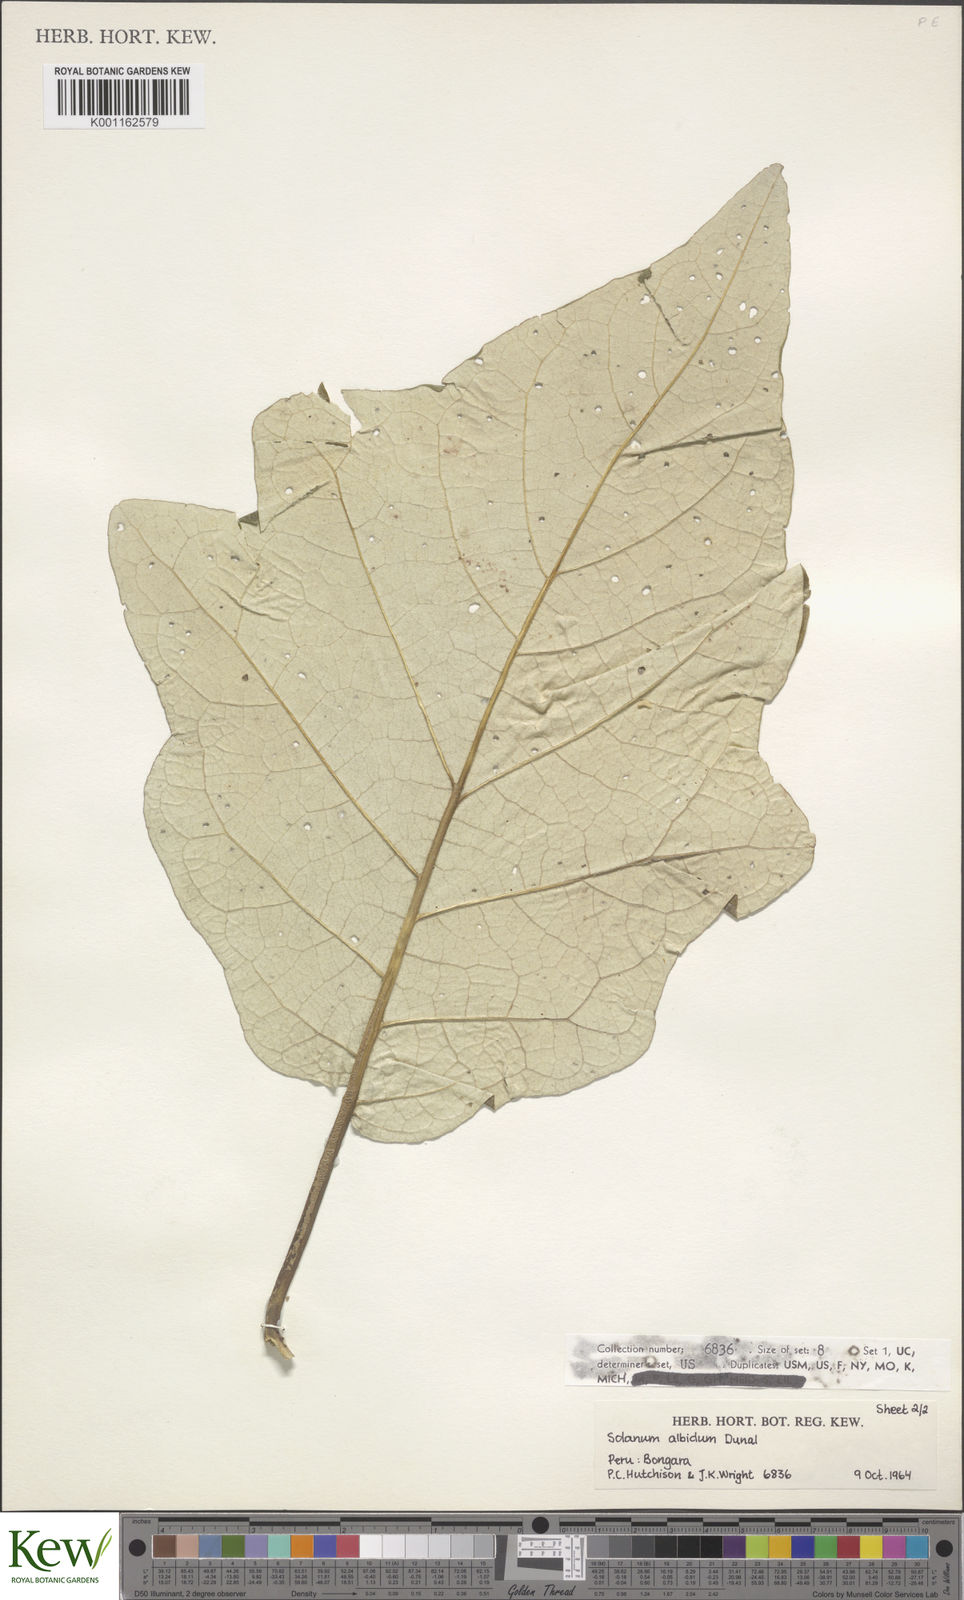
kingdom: Plantae
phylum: Tracheophyta
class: Magnoliopsida
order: Solanales
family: Solanaceae
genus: Solanum
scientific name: Solanum albidum
